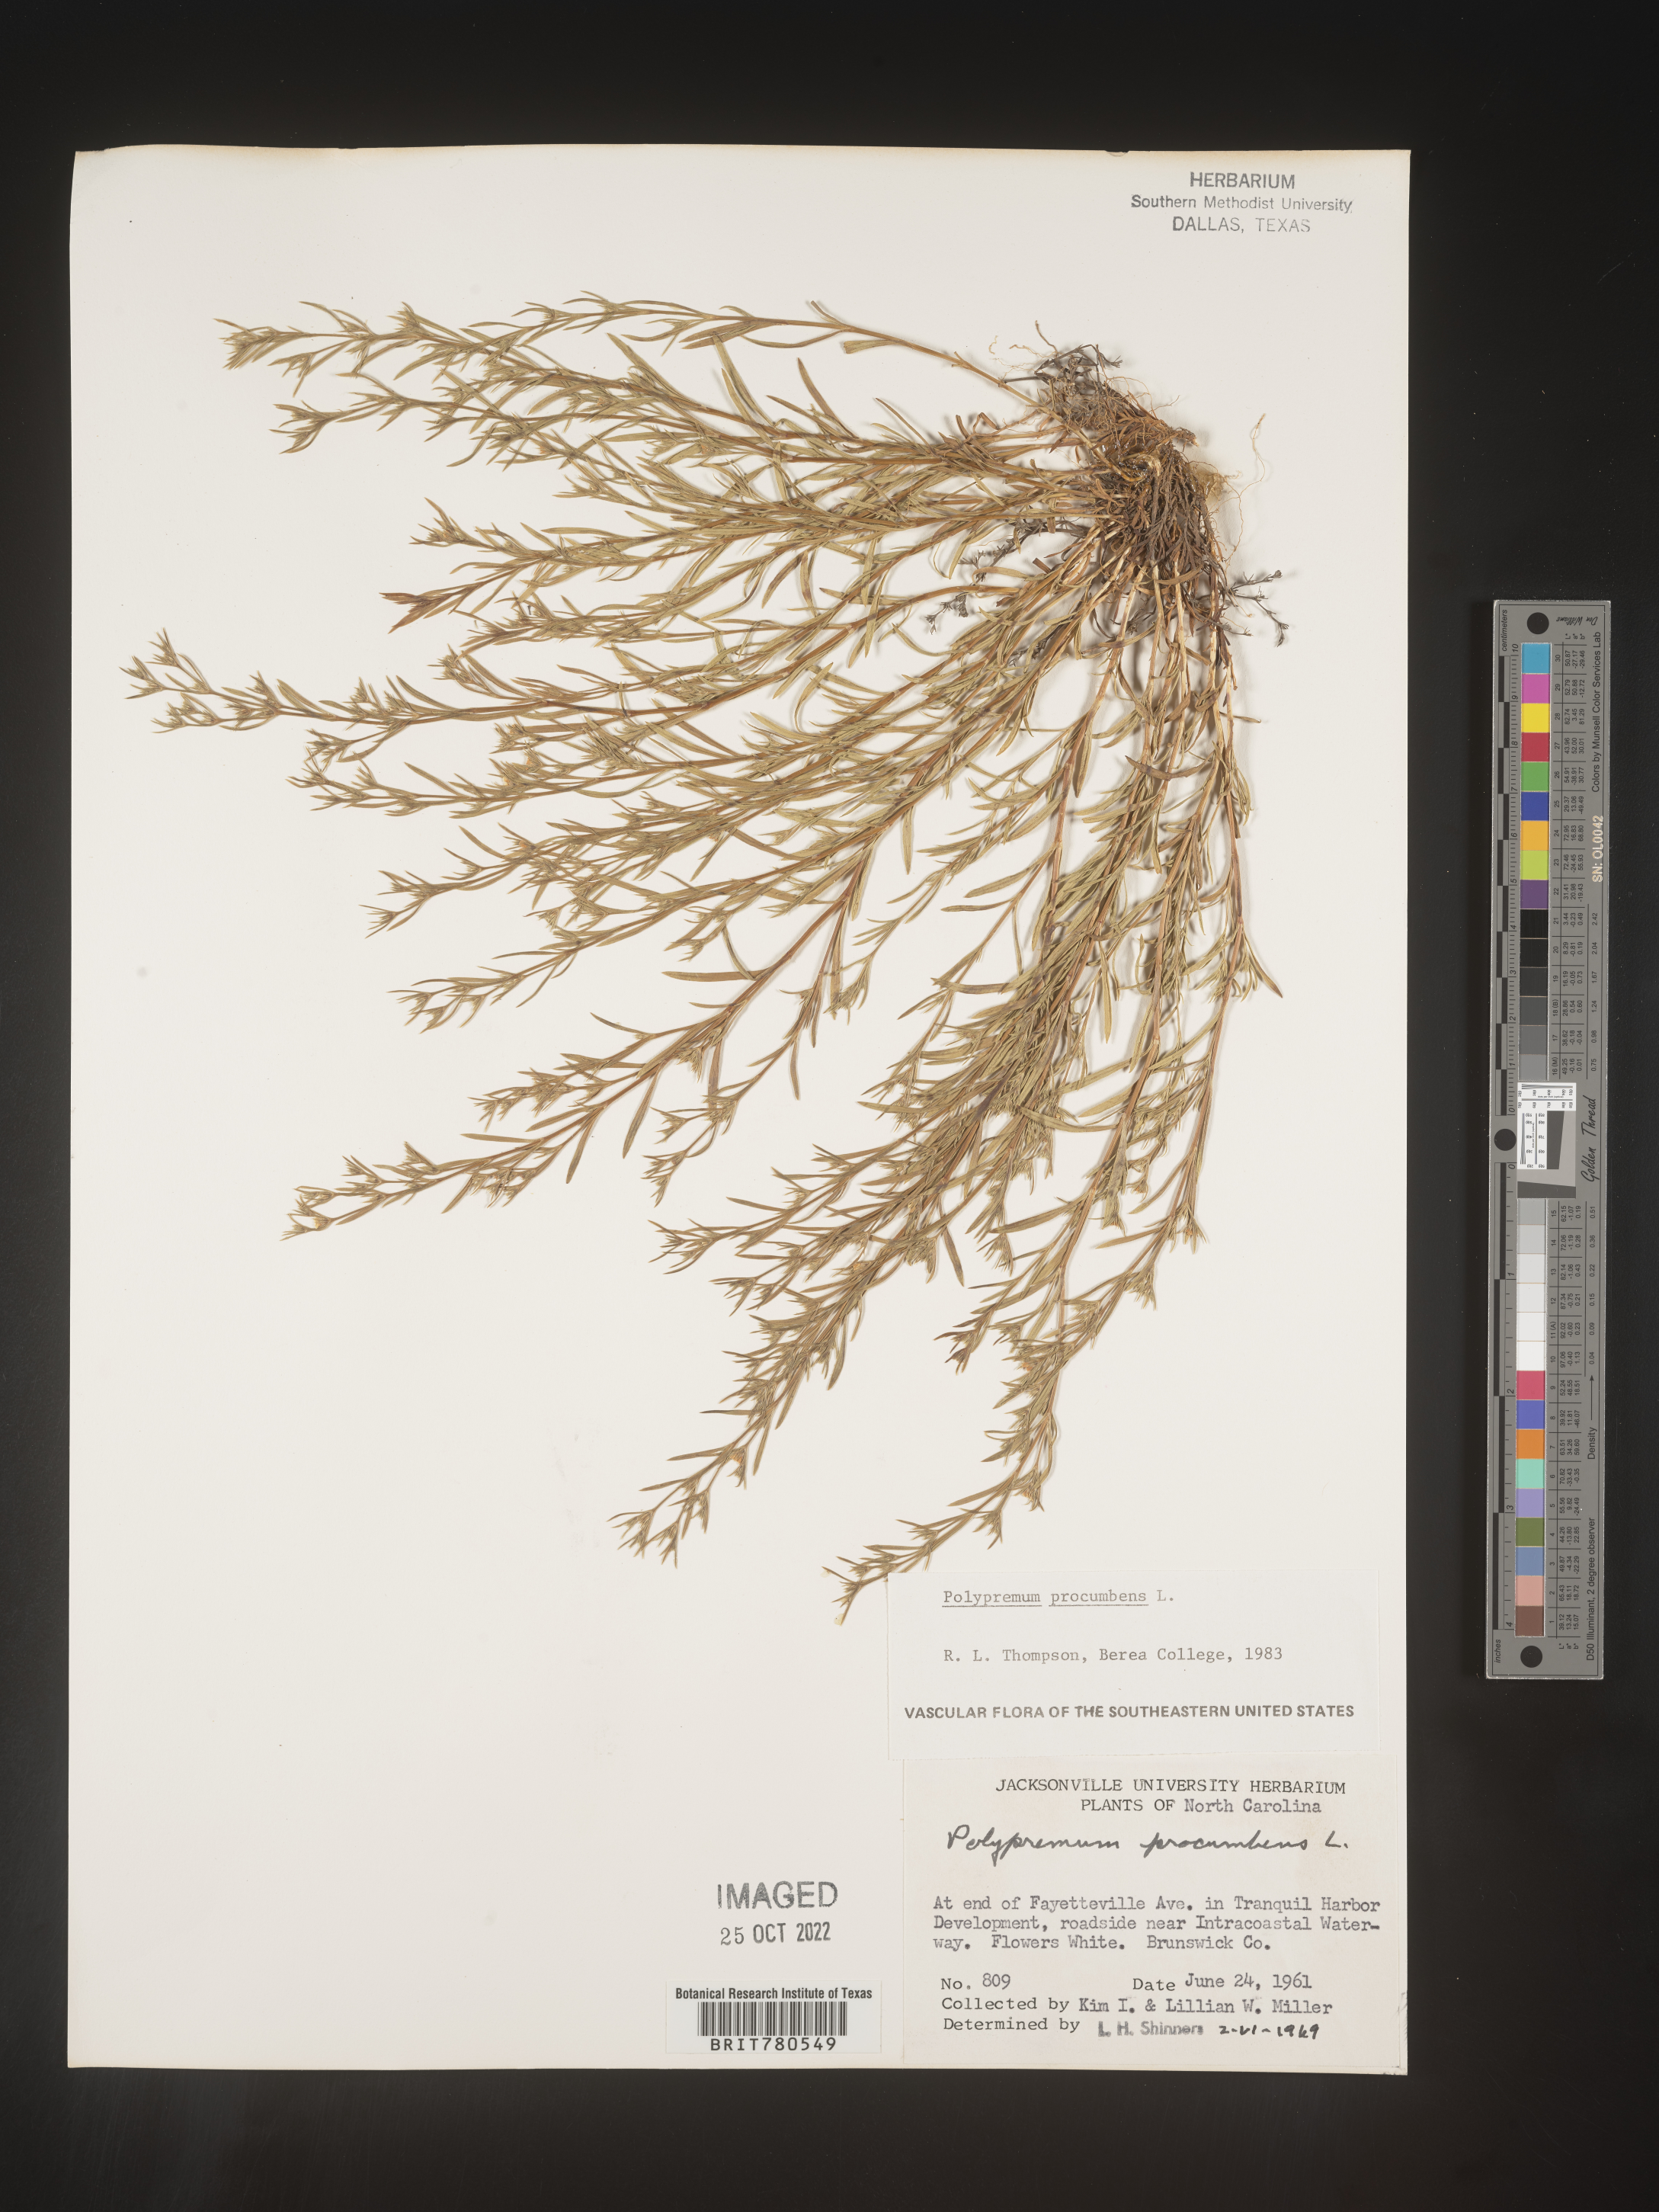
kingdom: Plantae
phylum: Tracheophyta
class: Magnoliopsida
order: Lamiales
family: Tetrachondraceae
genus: Polypremum
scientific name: Polypremum procumbens
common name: Juniper-leaf
